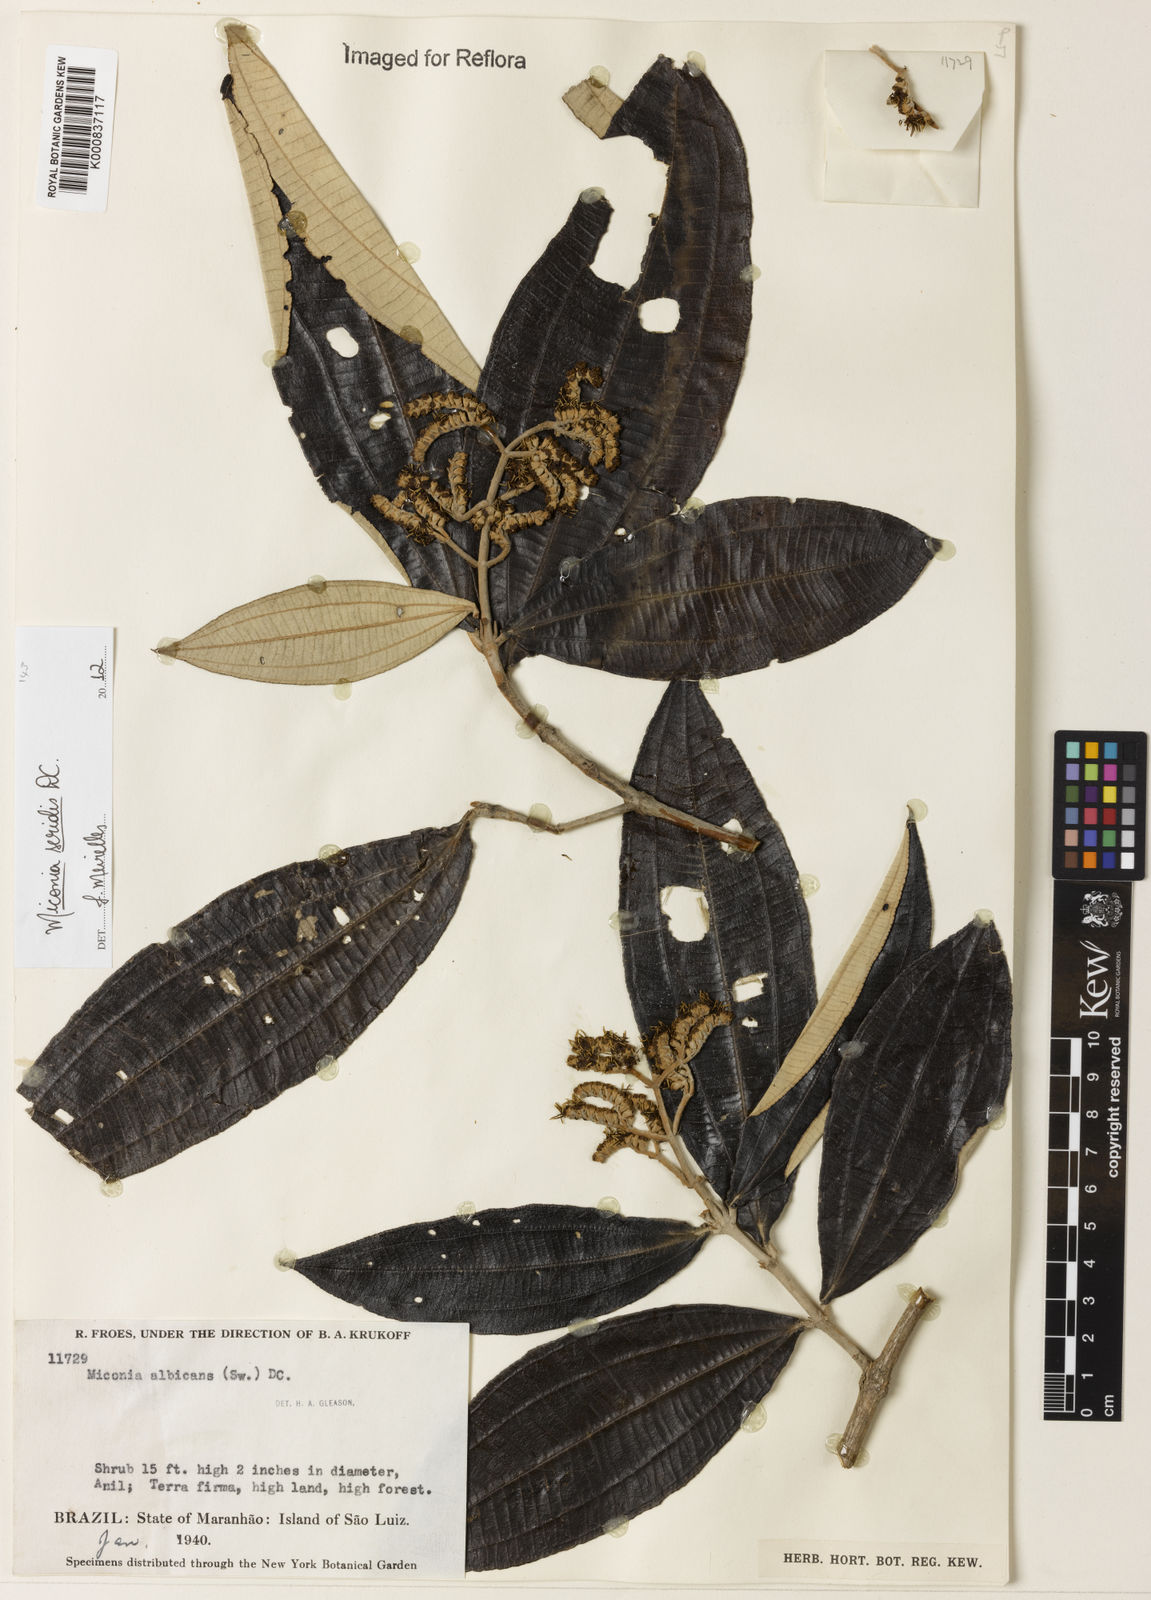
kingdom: Plantae
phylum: Tracheophyta
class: Magnoliopsida
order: Myrtales
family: Melastomataceae
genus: Miconia
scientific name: Miconia serialis
